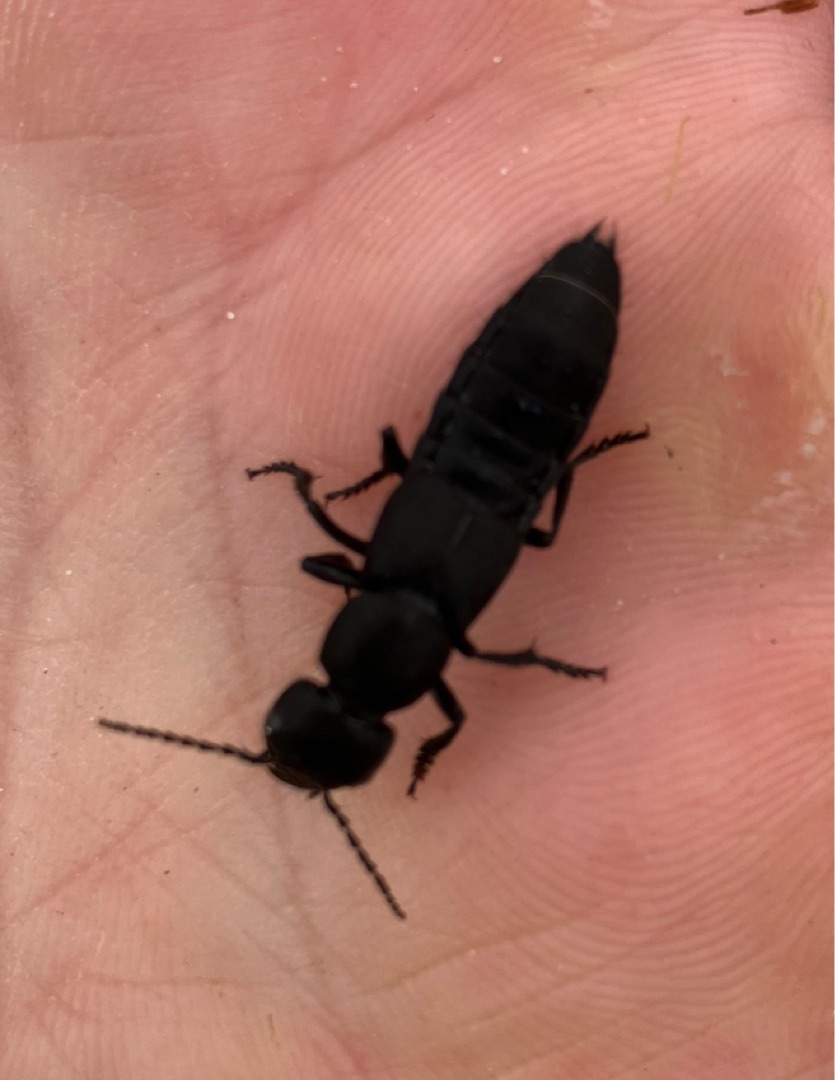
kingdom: Animalia
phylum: Arthropoda
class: Insecta
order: Coleoptera
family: Staphylinidae
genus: Ocypus
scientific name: Ocypus olens
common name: Stor rovbille
